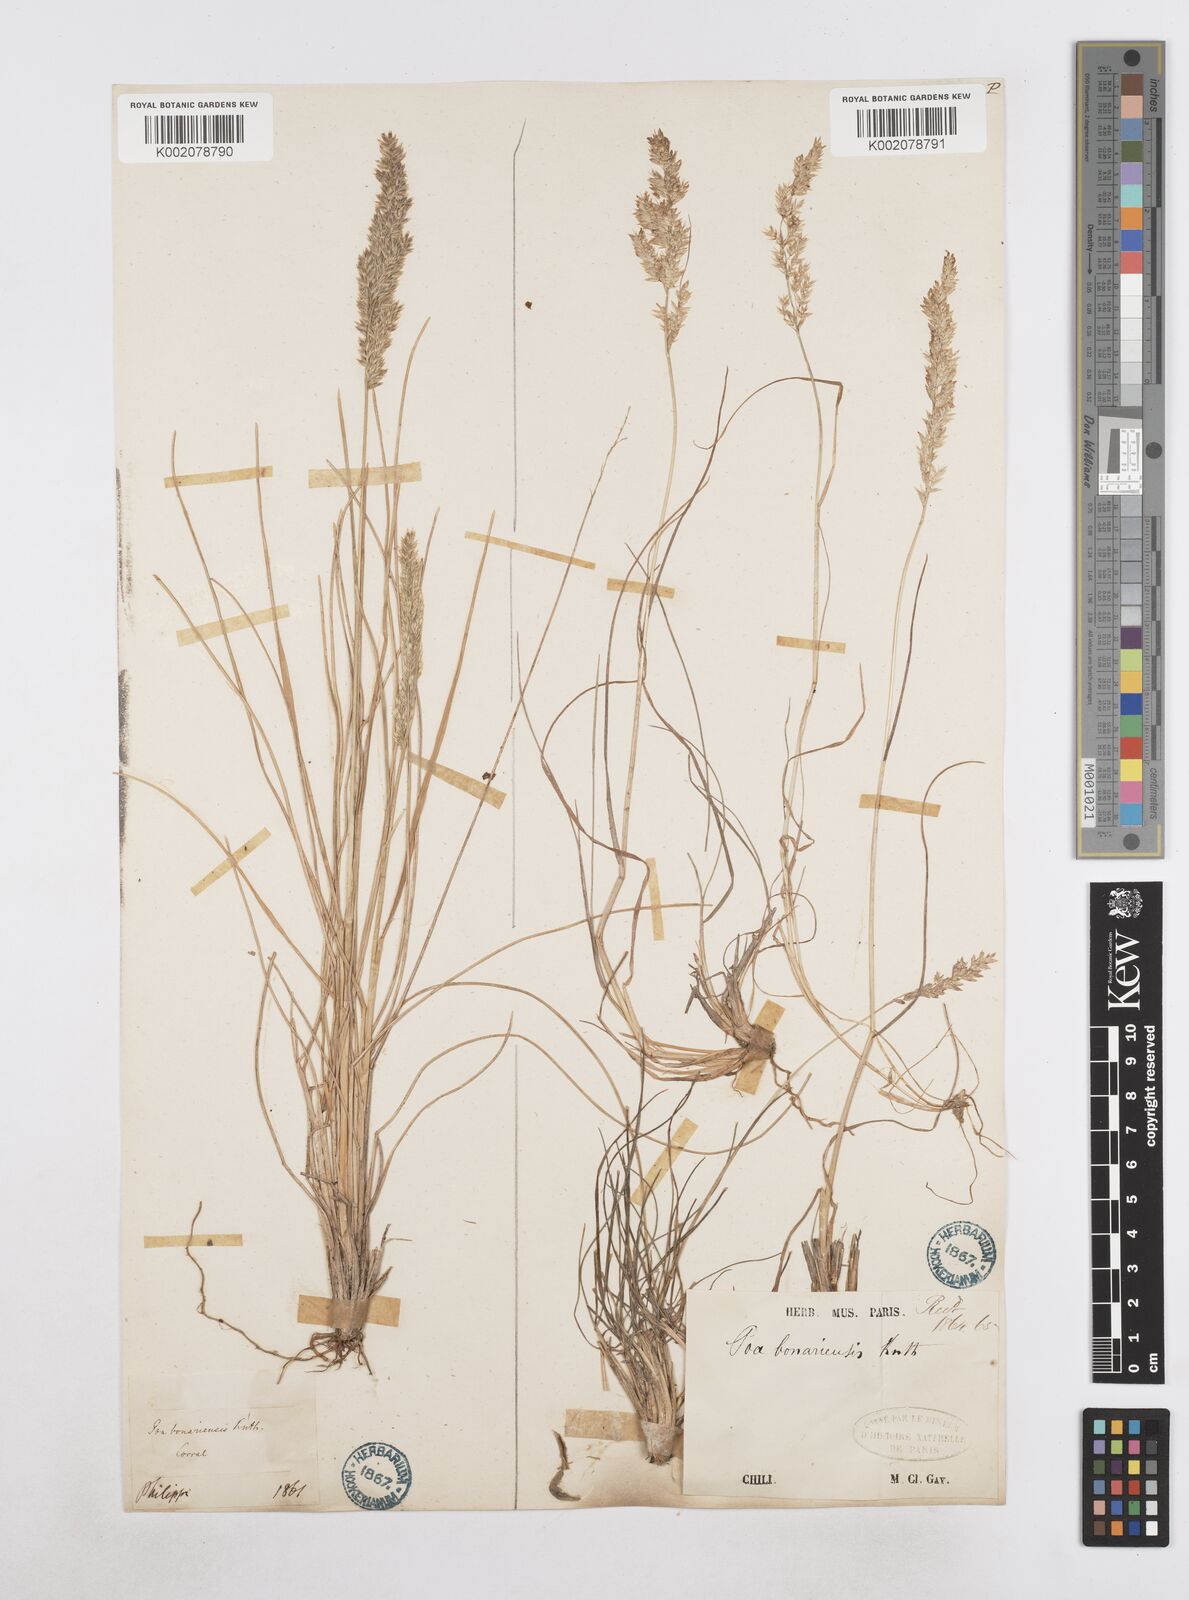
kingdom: Plantae
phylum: Tracheophyta
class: Liliopsida
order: Poales
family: Poaceae
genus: Poa
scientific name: Poa
